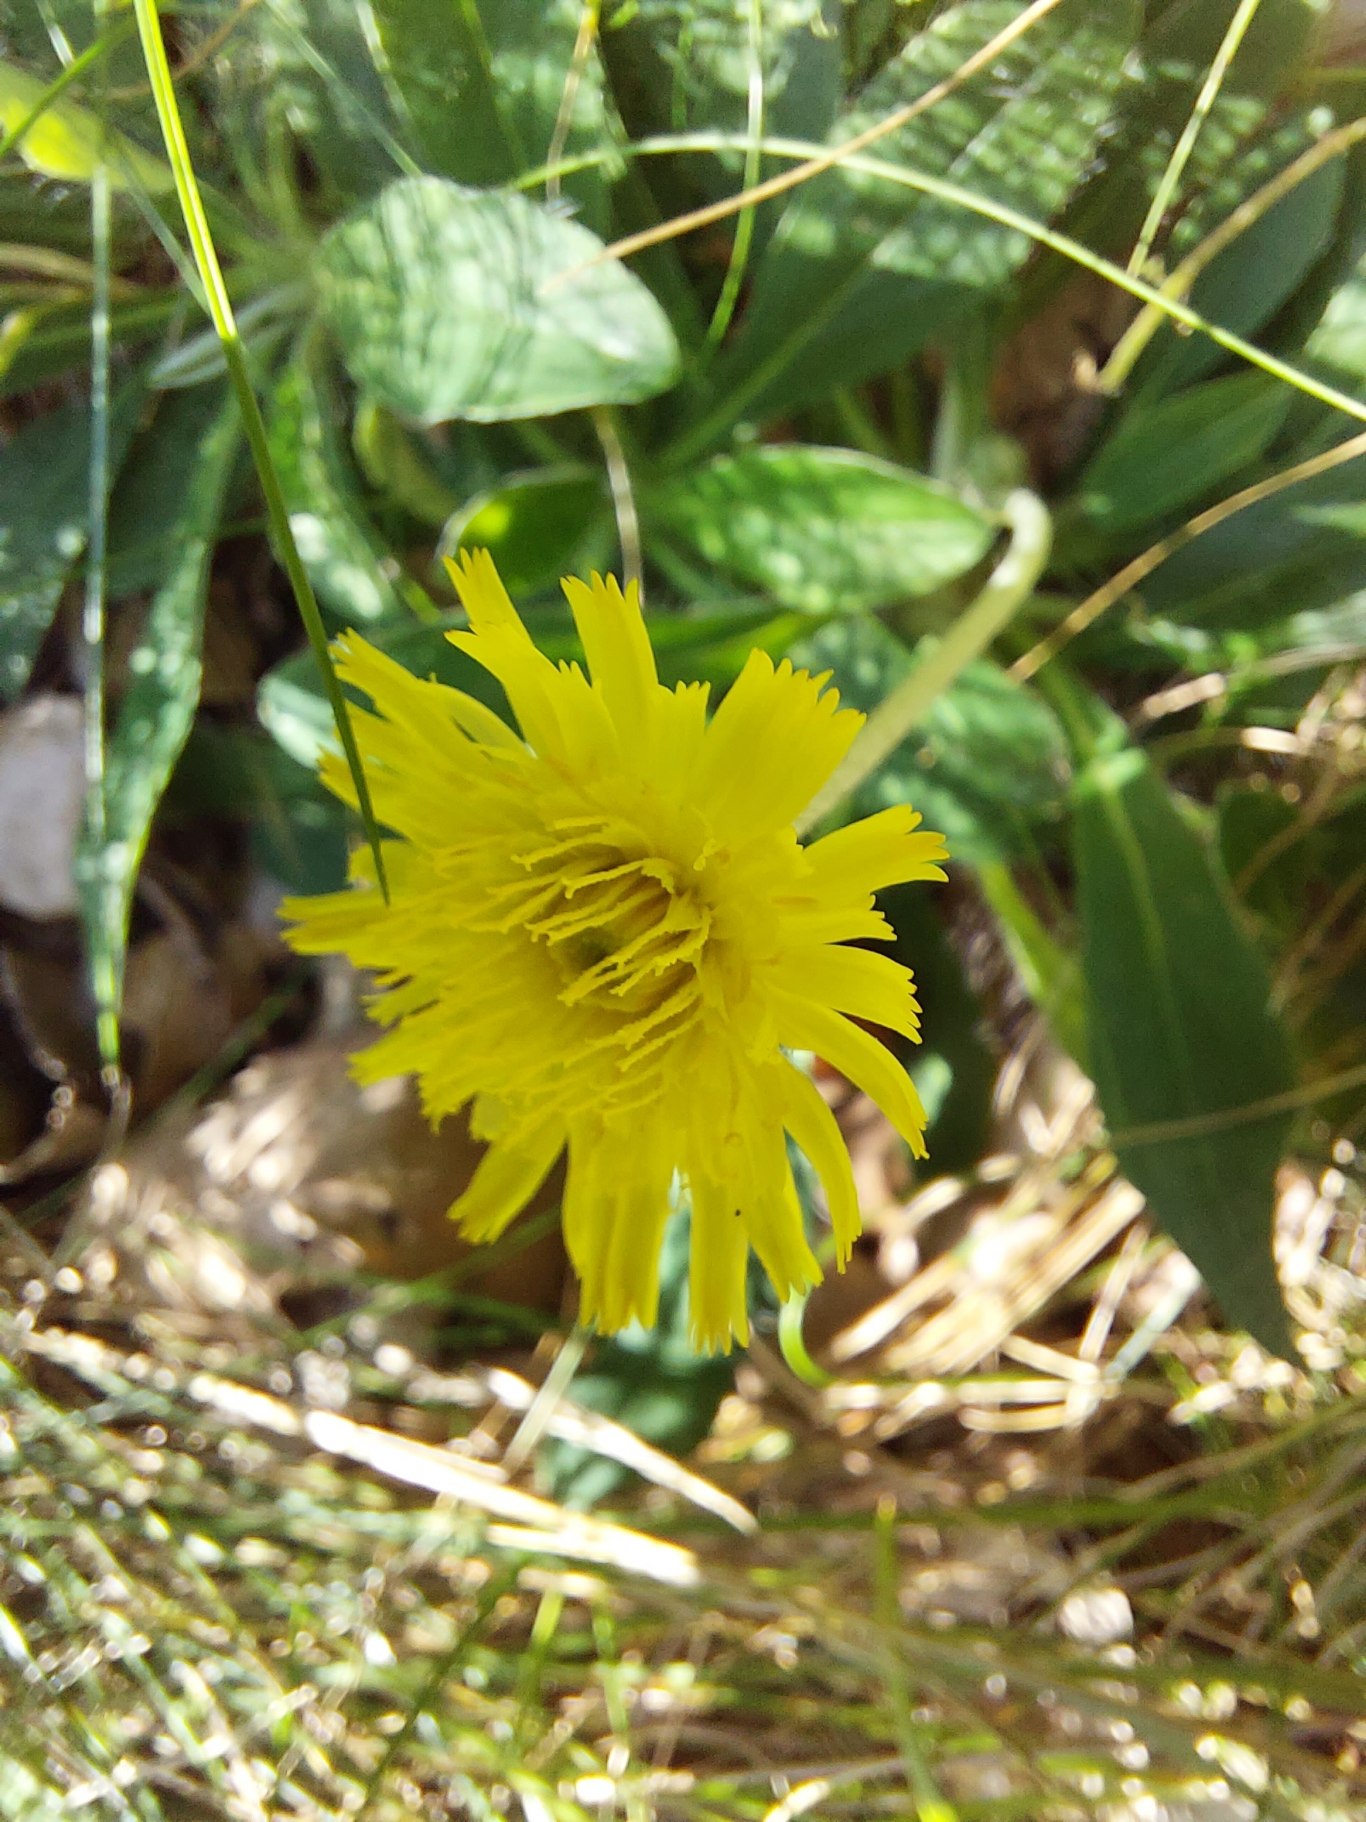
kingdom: Plantae
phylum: Tracheophyta
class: Magnoliopsida
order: Asterales
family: Asteraceae
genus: Pilosella
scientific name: Pilosella officinarum
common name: Håret høgeurt
